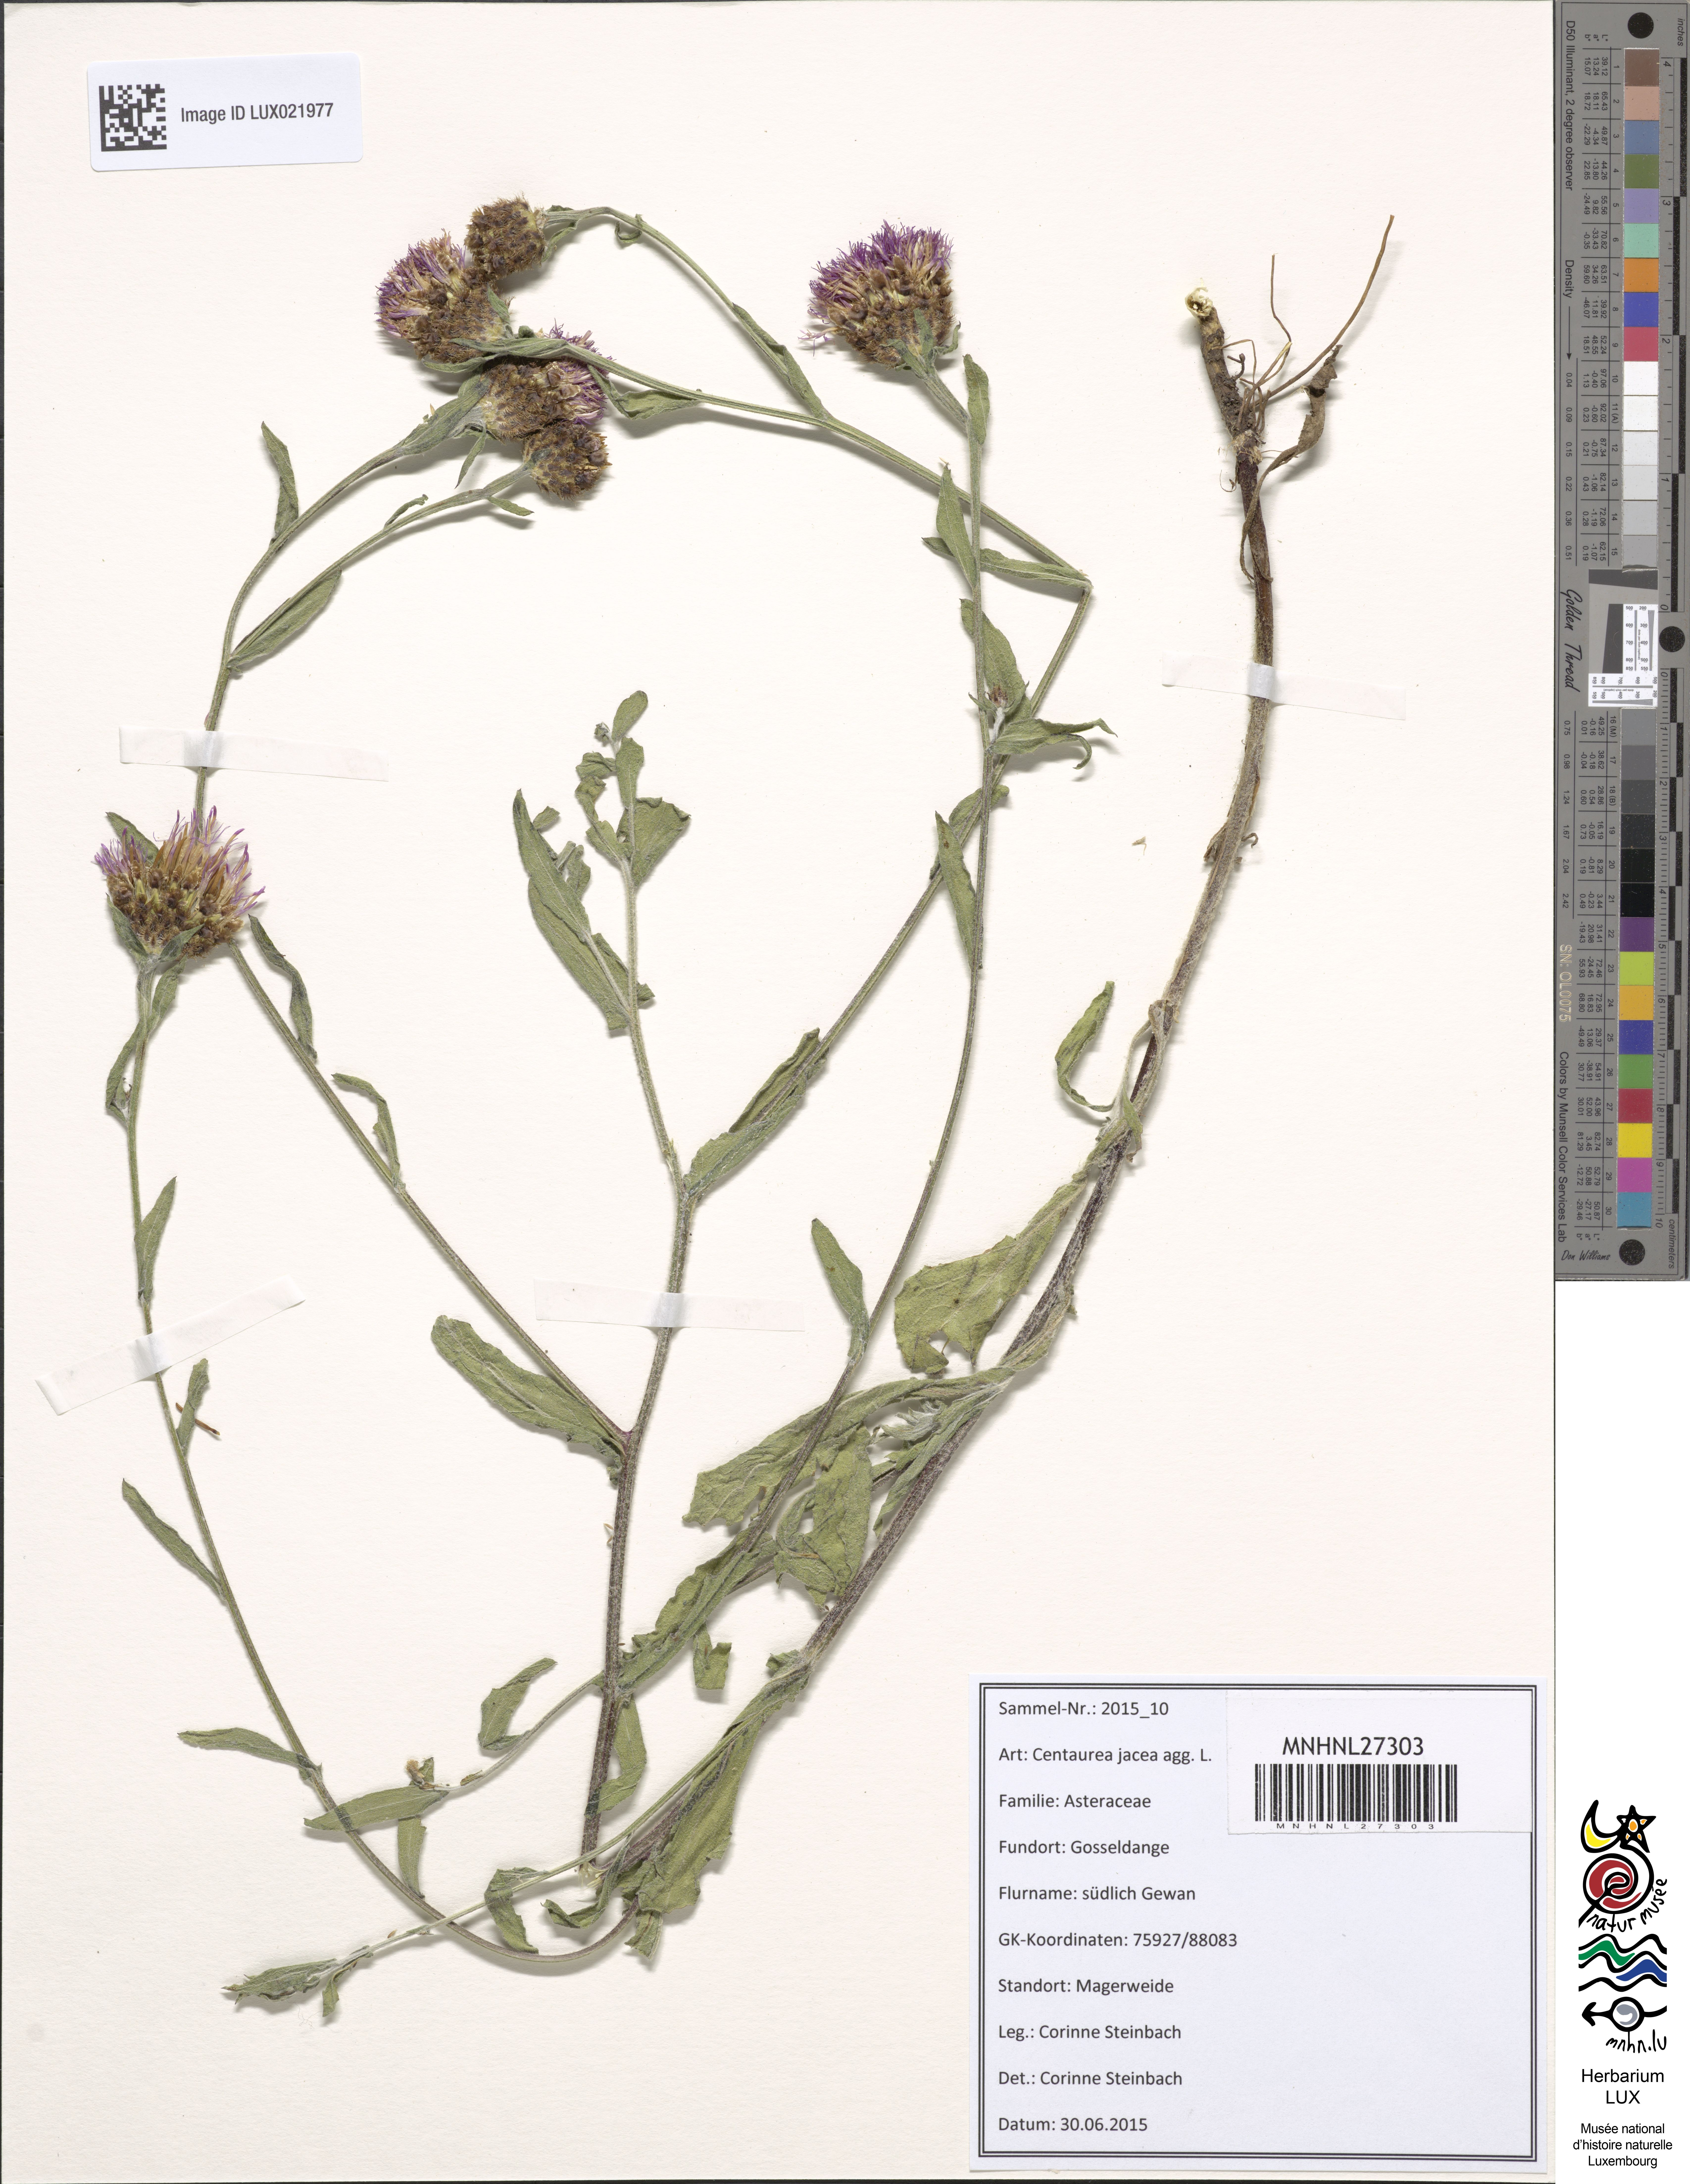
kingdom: Plantae
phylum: Tracheophyta
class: Magnoliopsida
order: Asterales
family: Asteraceae
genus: Centaurea
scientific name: Centaurea jacea
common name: Brown knapweed
